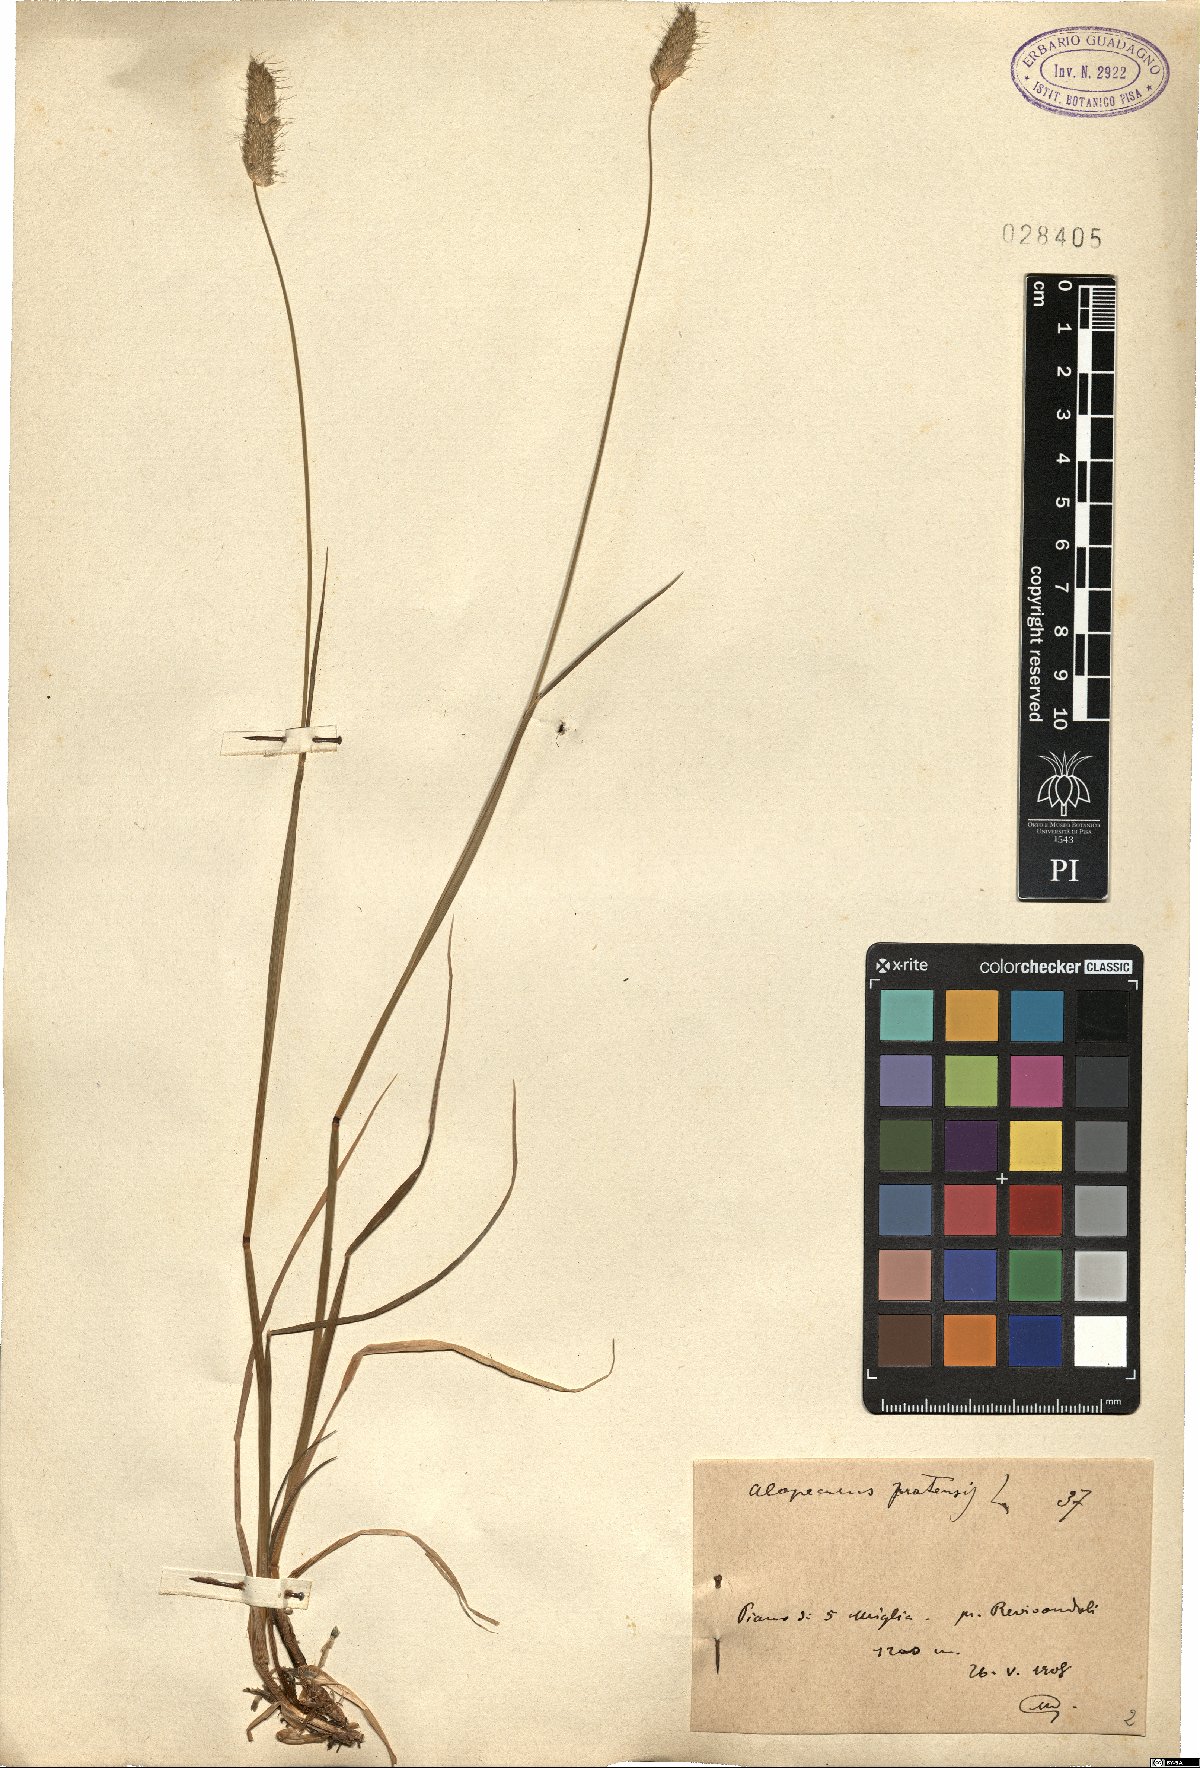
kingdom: Plantae
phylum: Tracheophyta
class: Liliopsida
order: Poales
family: Poaceae
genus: Alopecurus
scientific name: Alopecurus pratensis
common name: Meadow foxtail
